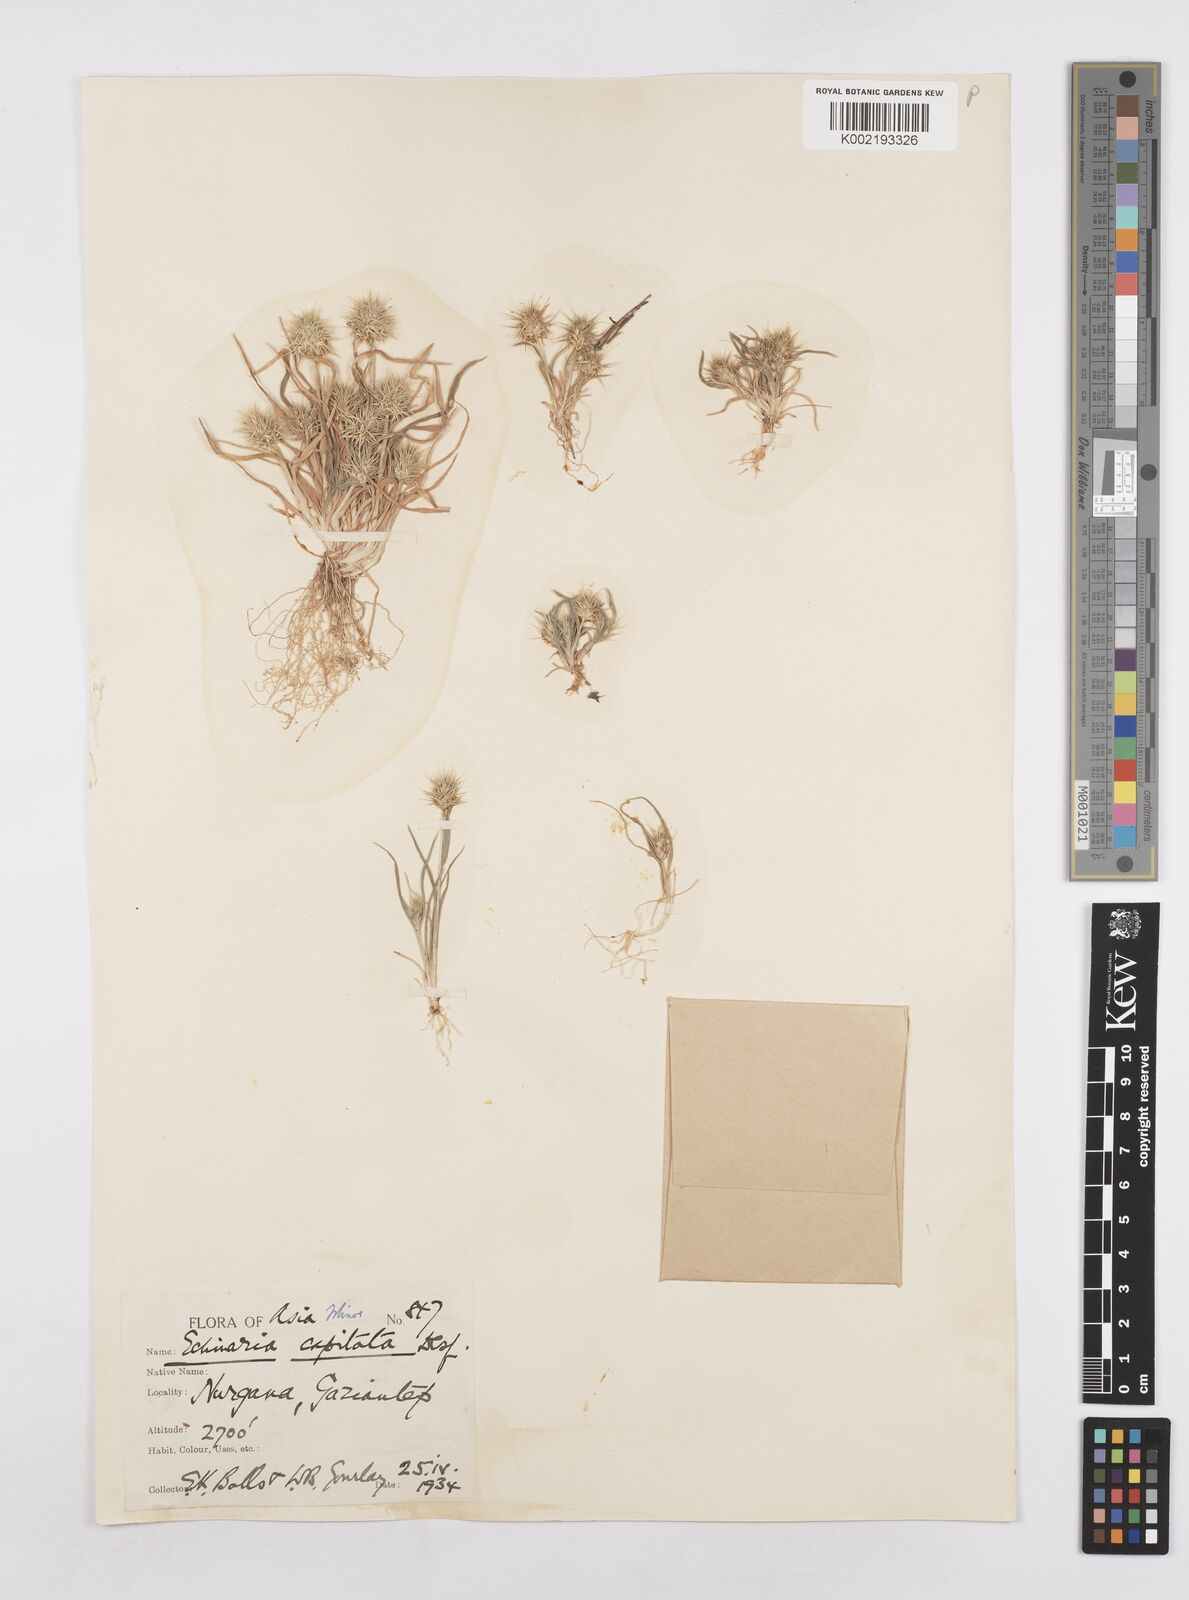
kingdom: Plantae
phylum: Tracheophyta
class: Liliopsida
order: Poales
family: Poaceae
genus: Echinaria
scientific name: Echinaria capitata
